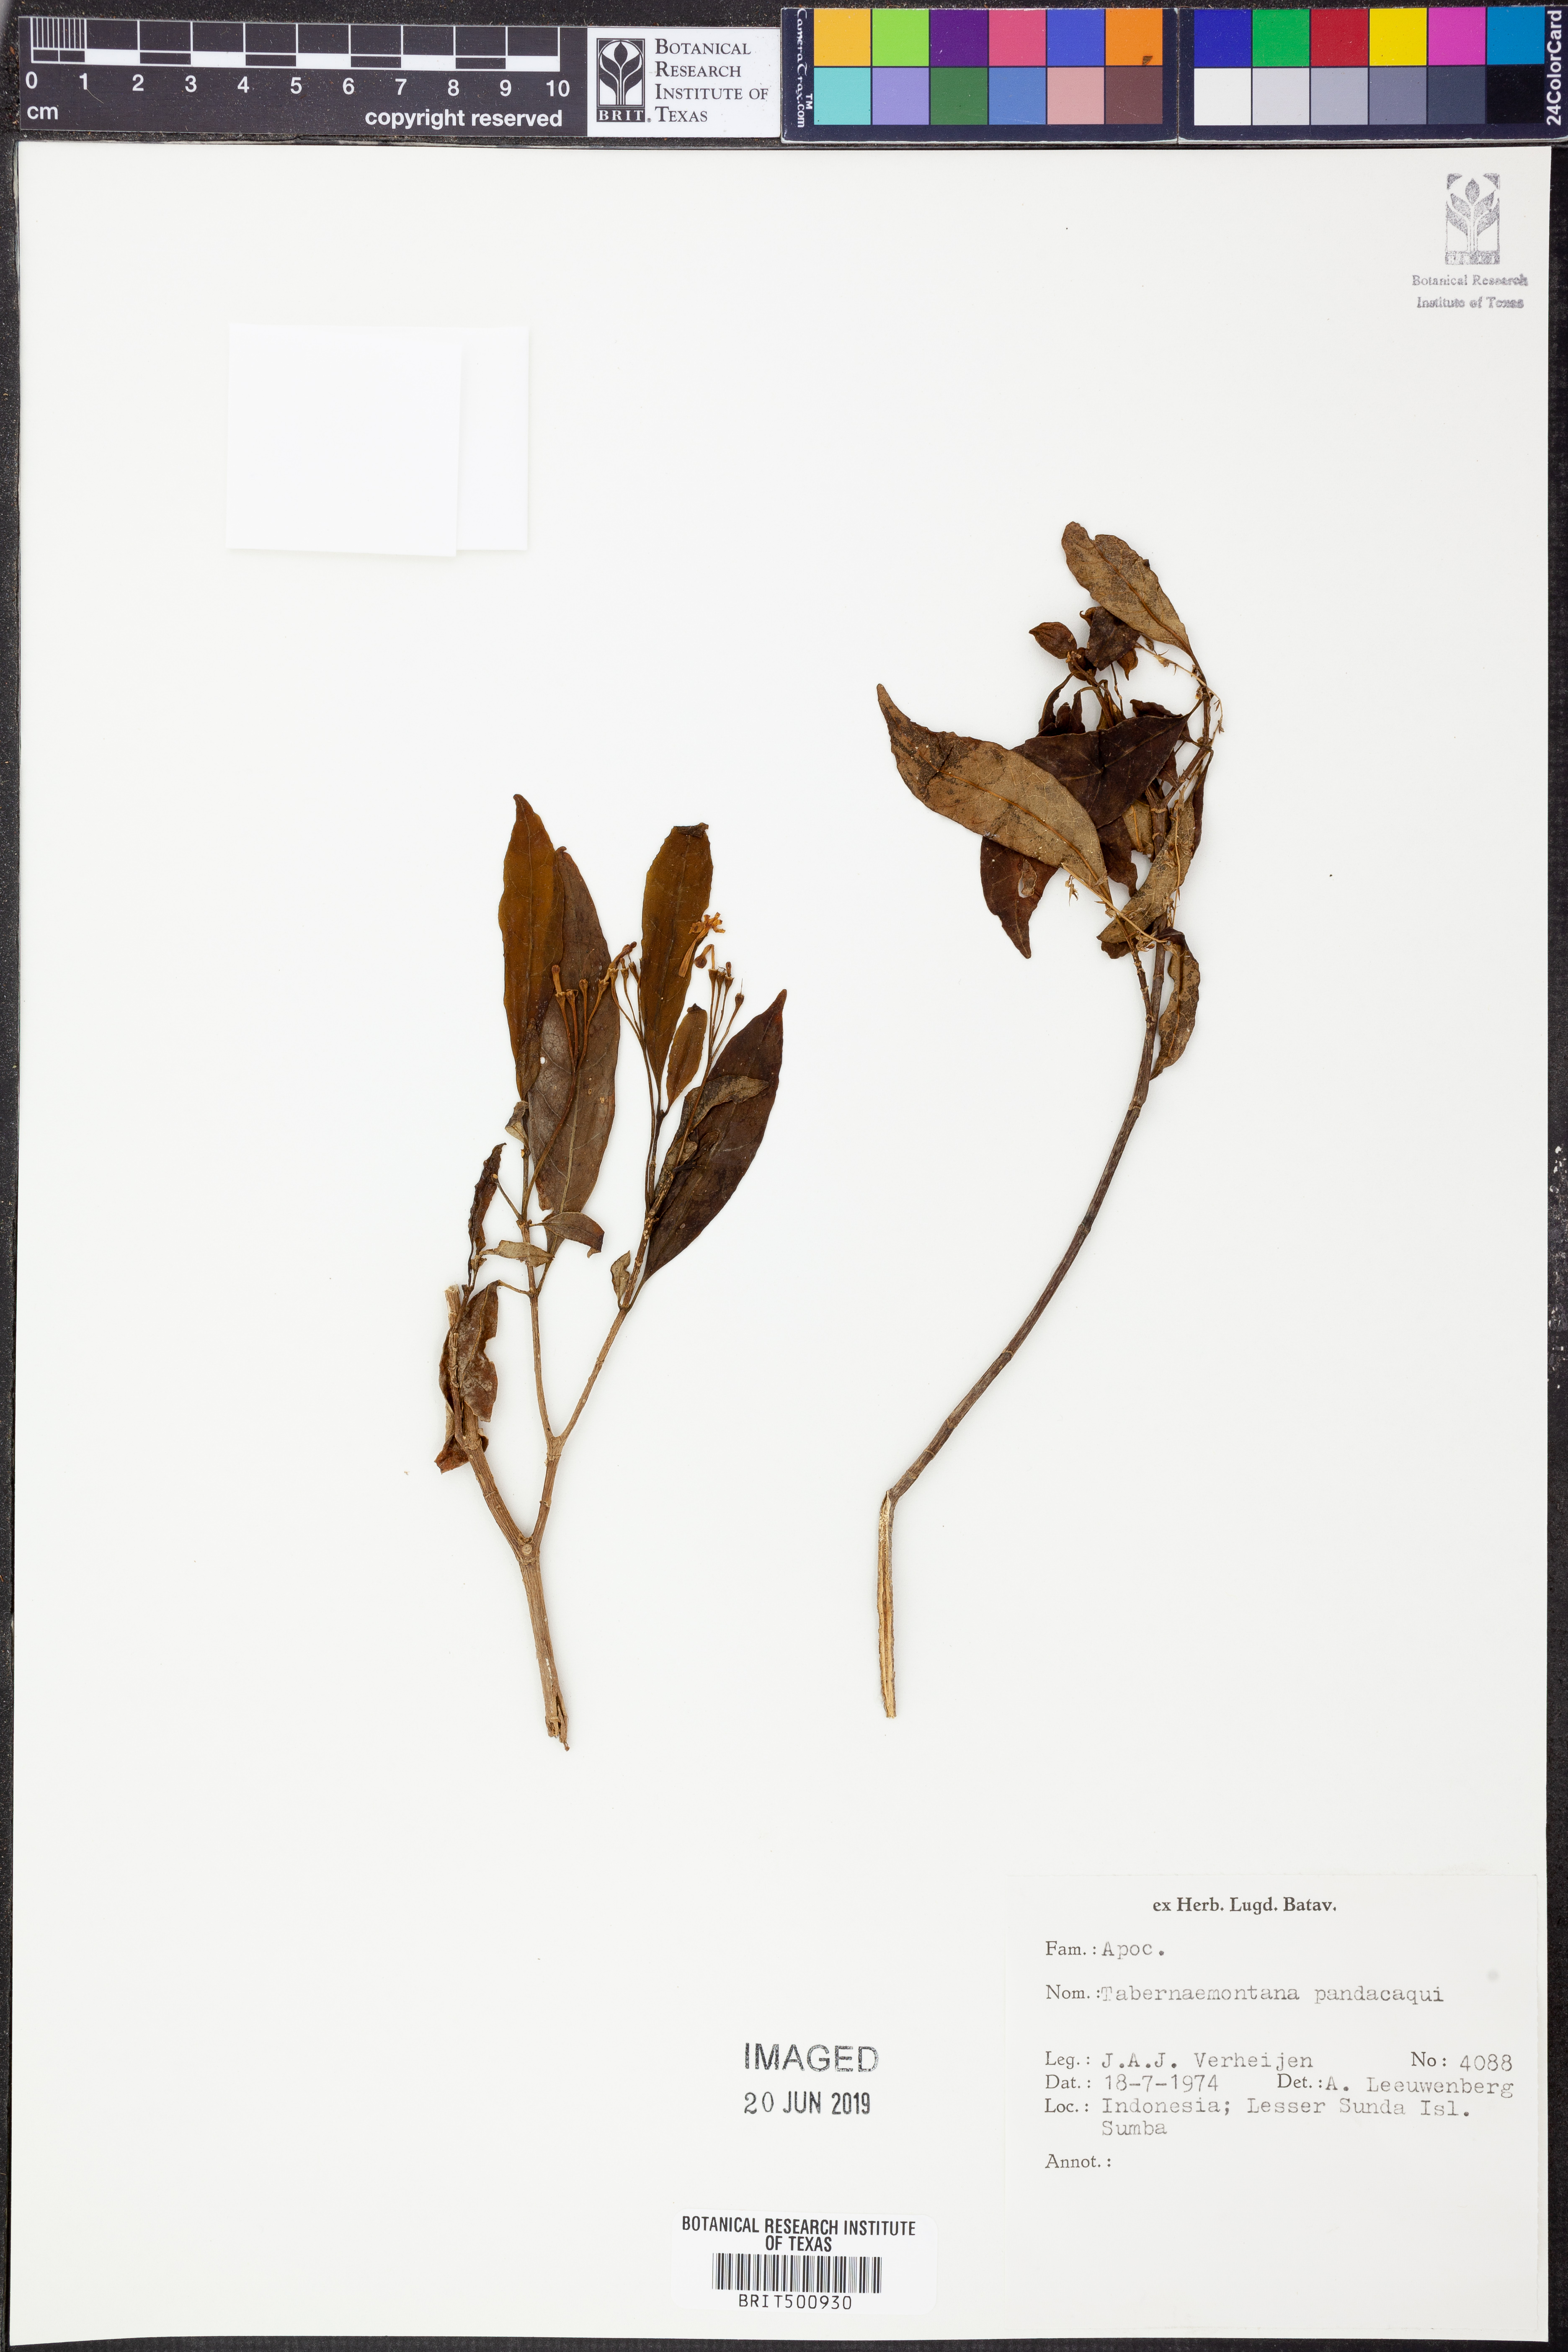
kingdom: Plantae
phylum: Tracheophyta
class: Magnoliopsida
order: Gentianales
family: Apocynaceae
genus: Tabernaemontana
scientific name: Tabernaemontana pandacaqui
